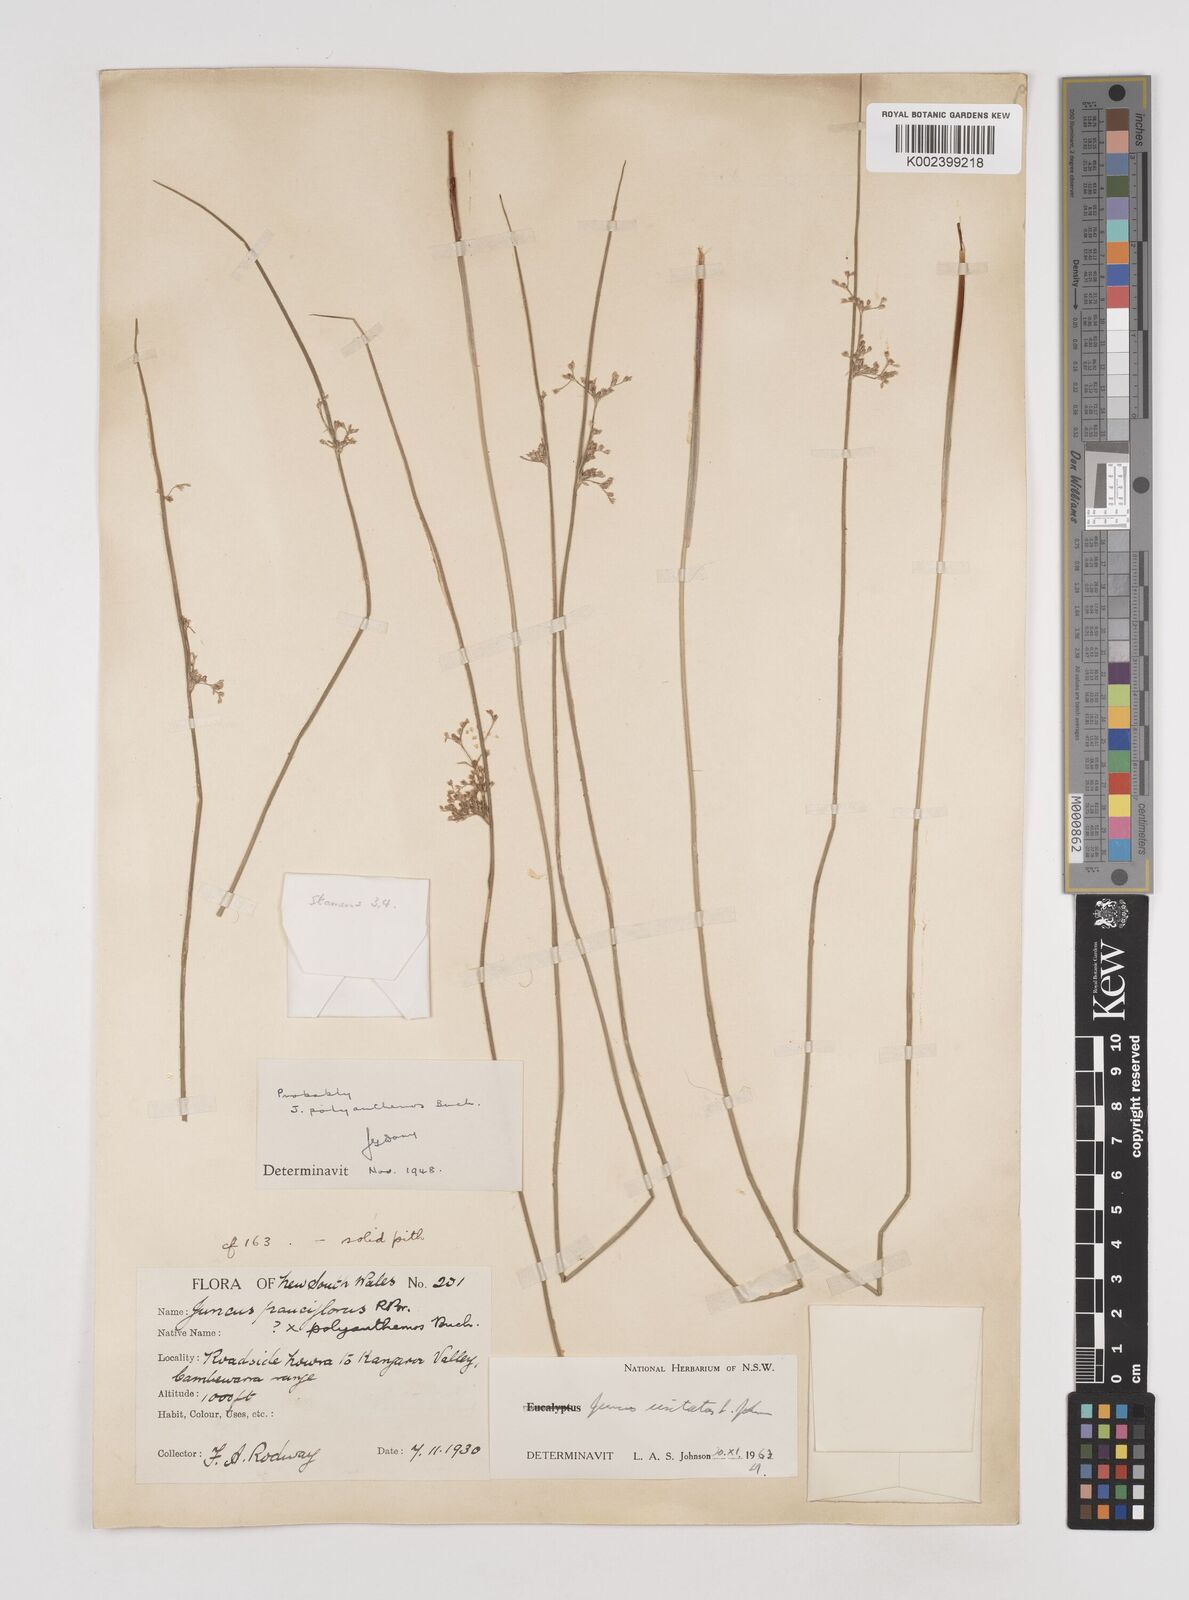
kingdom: Plantae
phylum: Tracheophyta
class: Liliopsida
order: Poales
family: Juncaceae
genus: Juncus
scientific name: Juncus usitatus
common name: Rush
